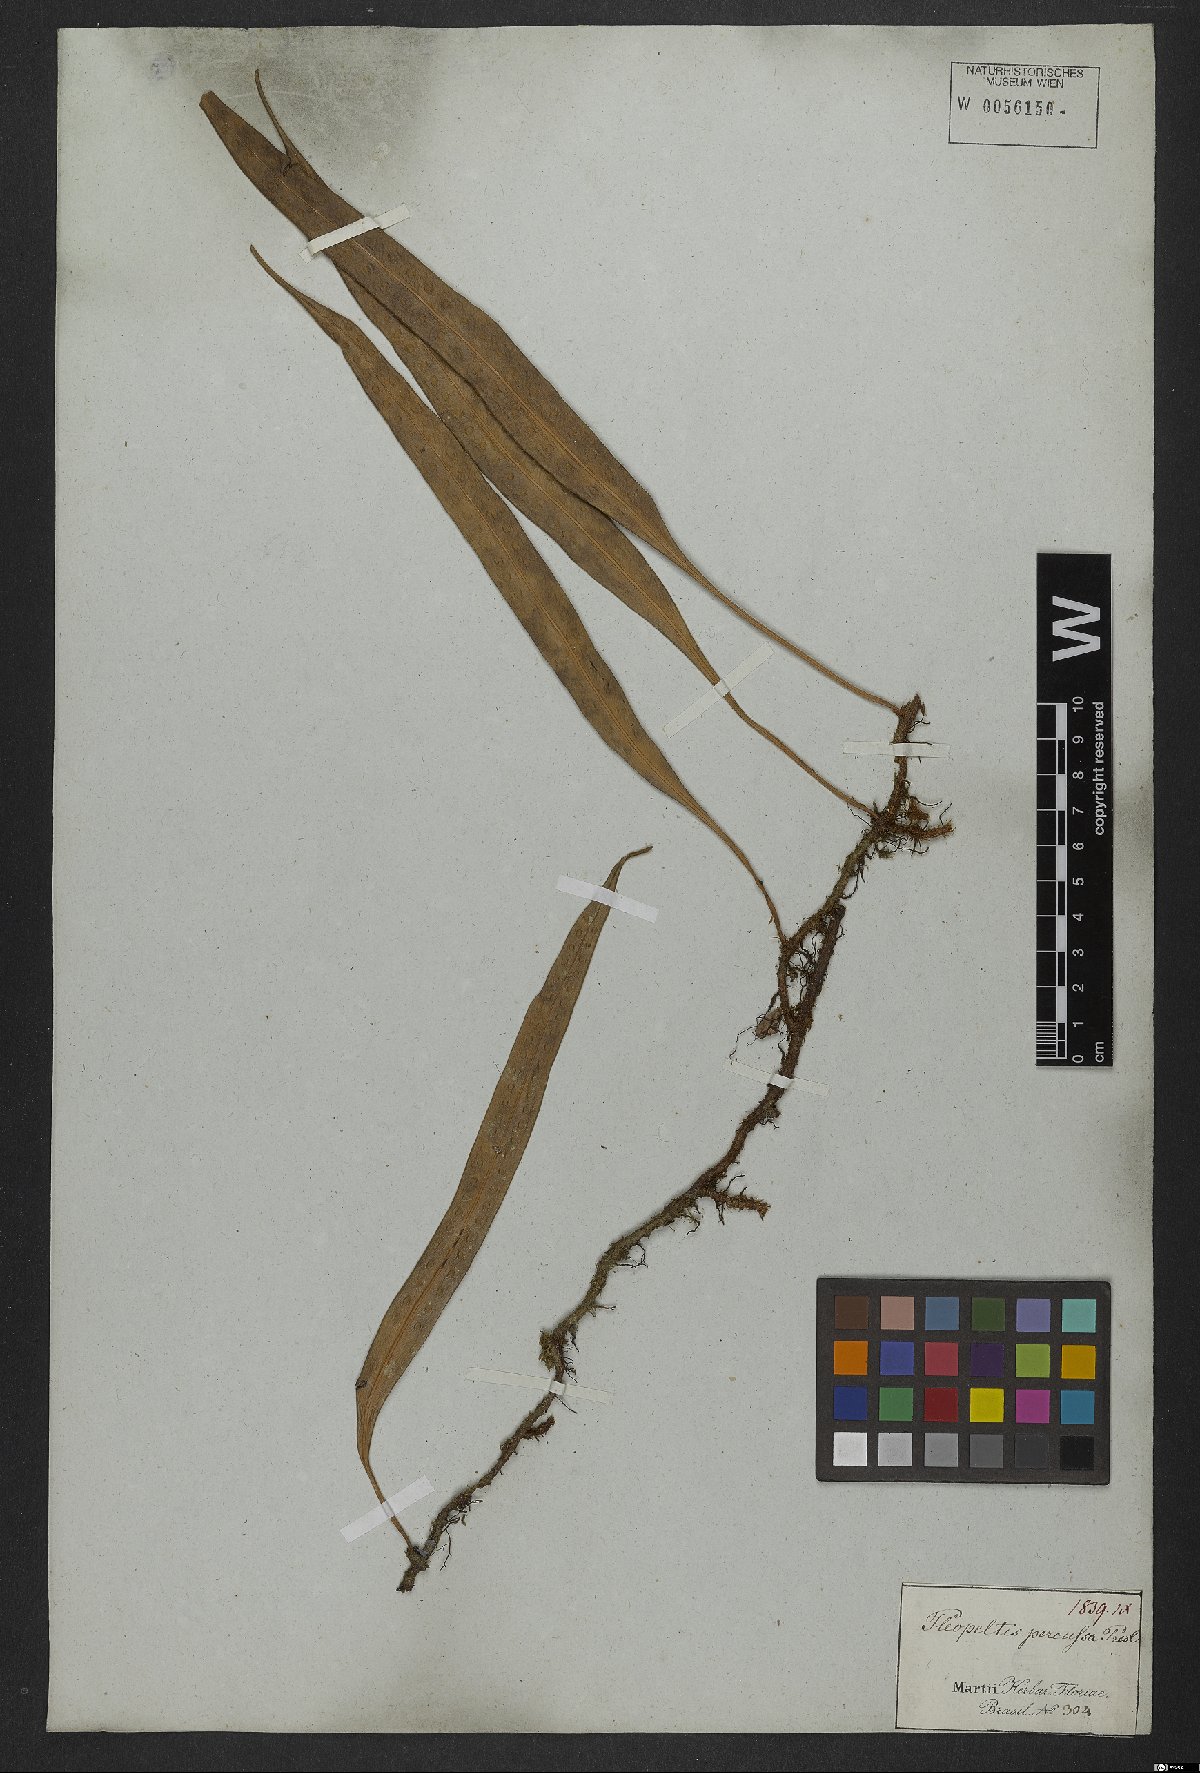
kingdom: Plantae
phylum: Tracheophyta
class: Polypodiopsida
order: Polypodiales
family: Polypodiaceae
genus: Microgramma
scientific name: Microgramma percussa
